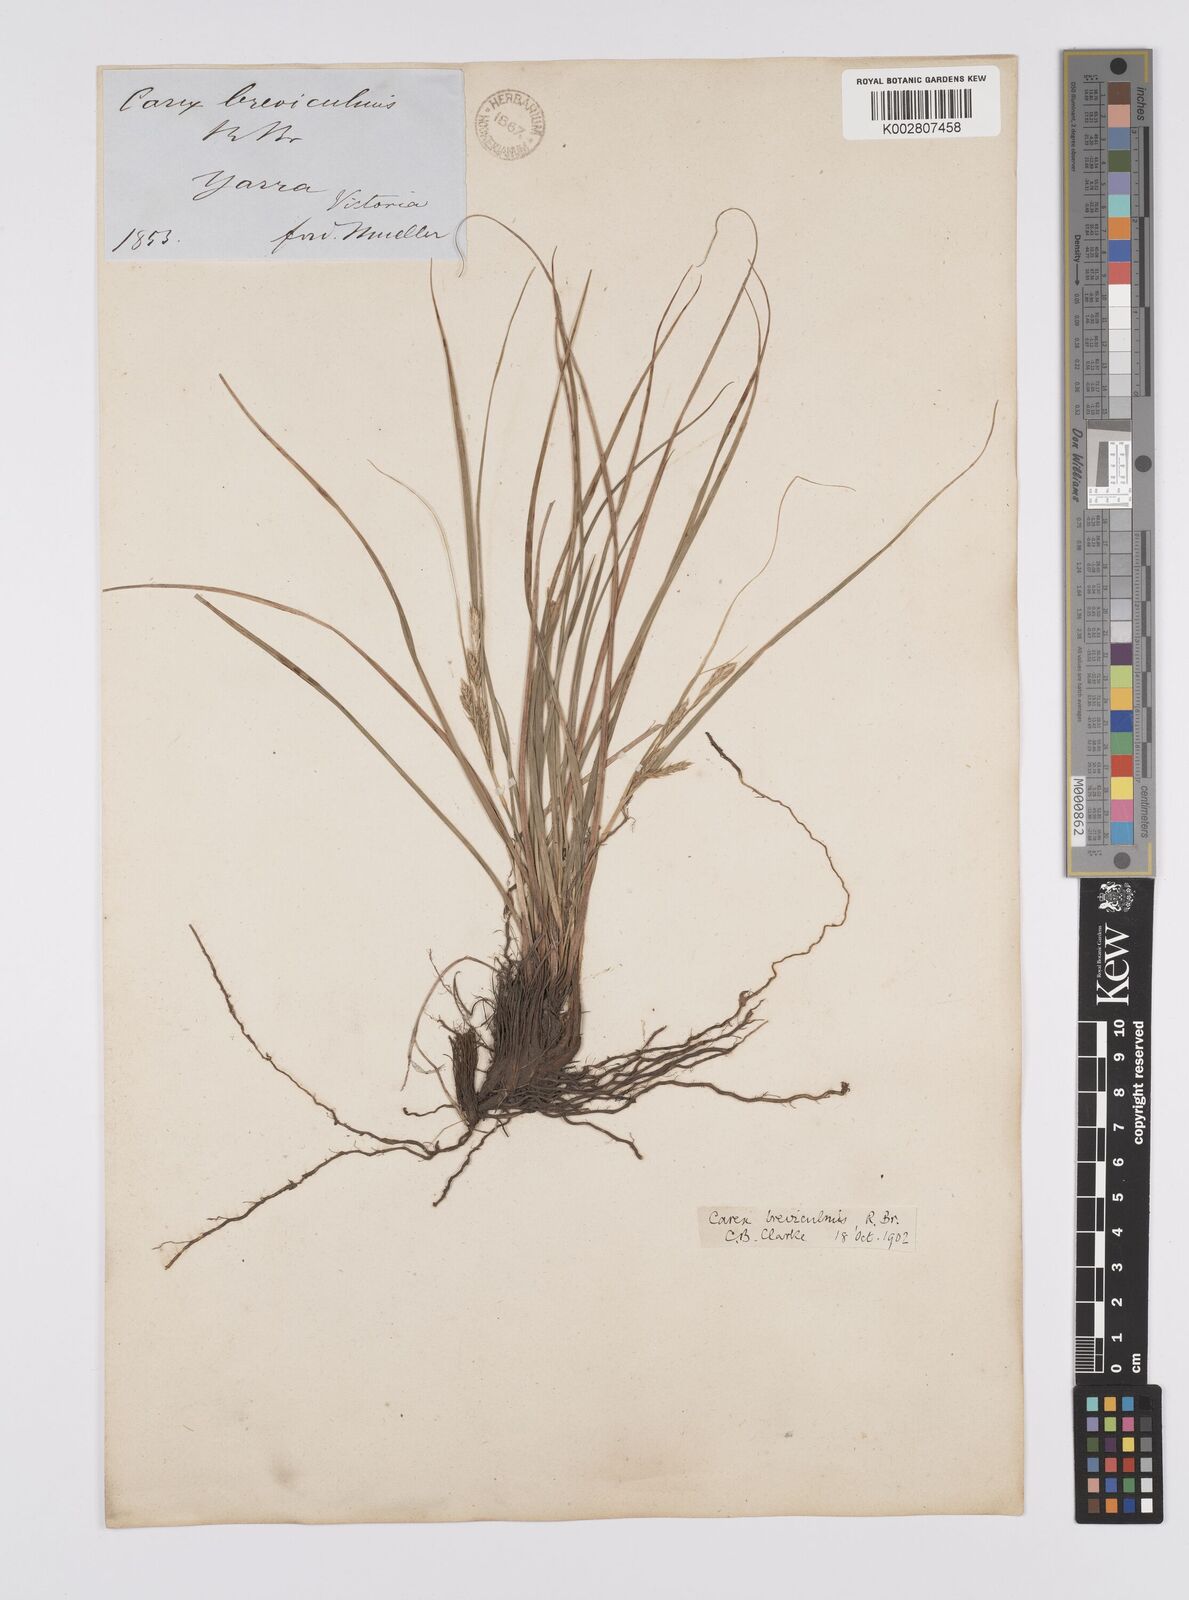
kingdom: Plantae
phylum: Tracheophyta
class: Liliopsida
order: Poales
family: Cyperaceae
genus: Carex
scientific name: Carex breviculmis
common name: Asian shortstem sedge
